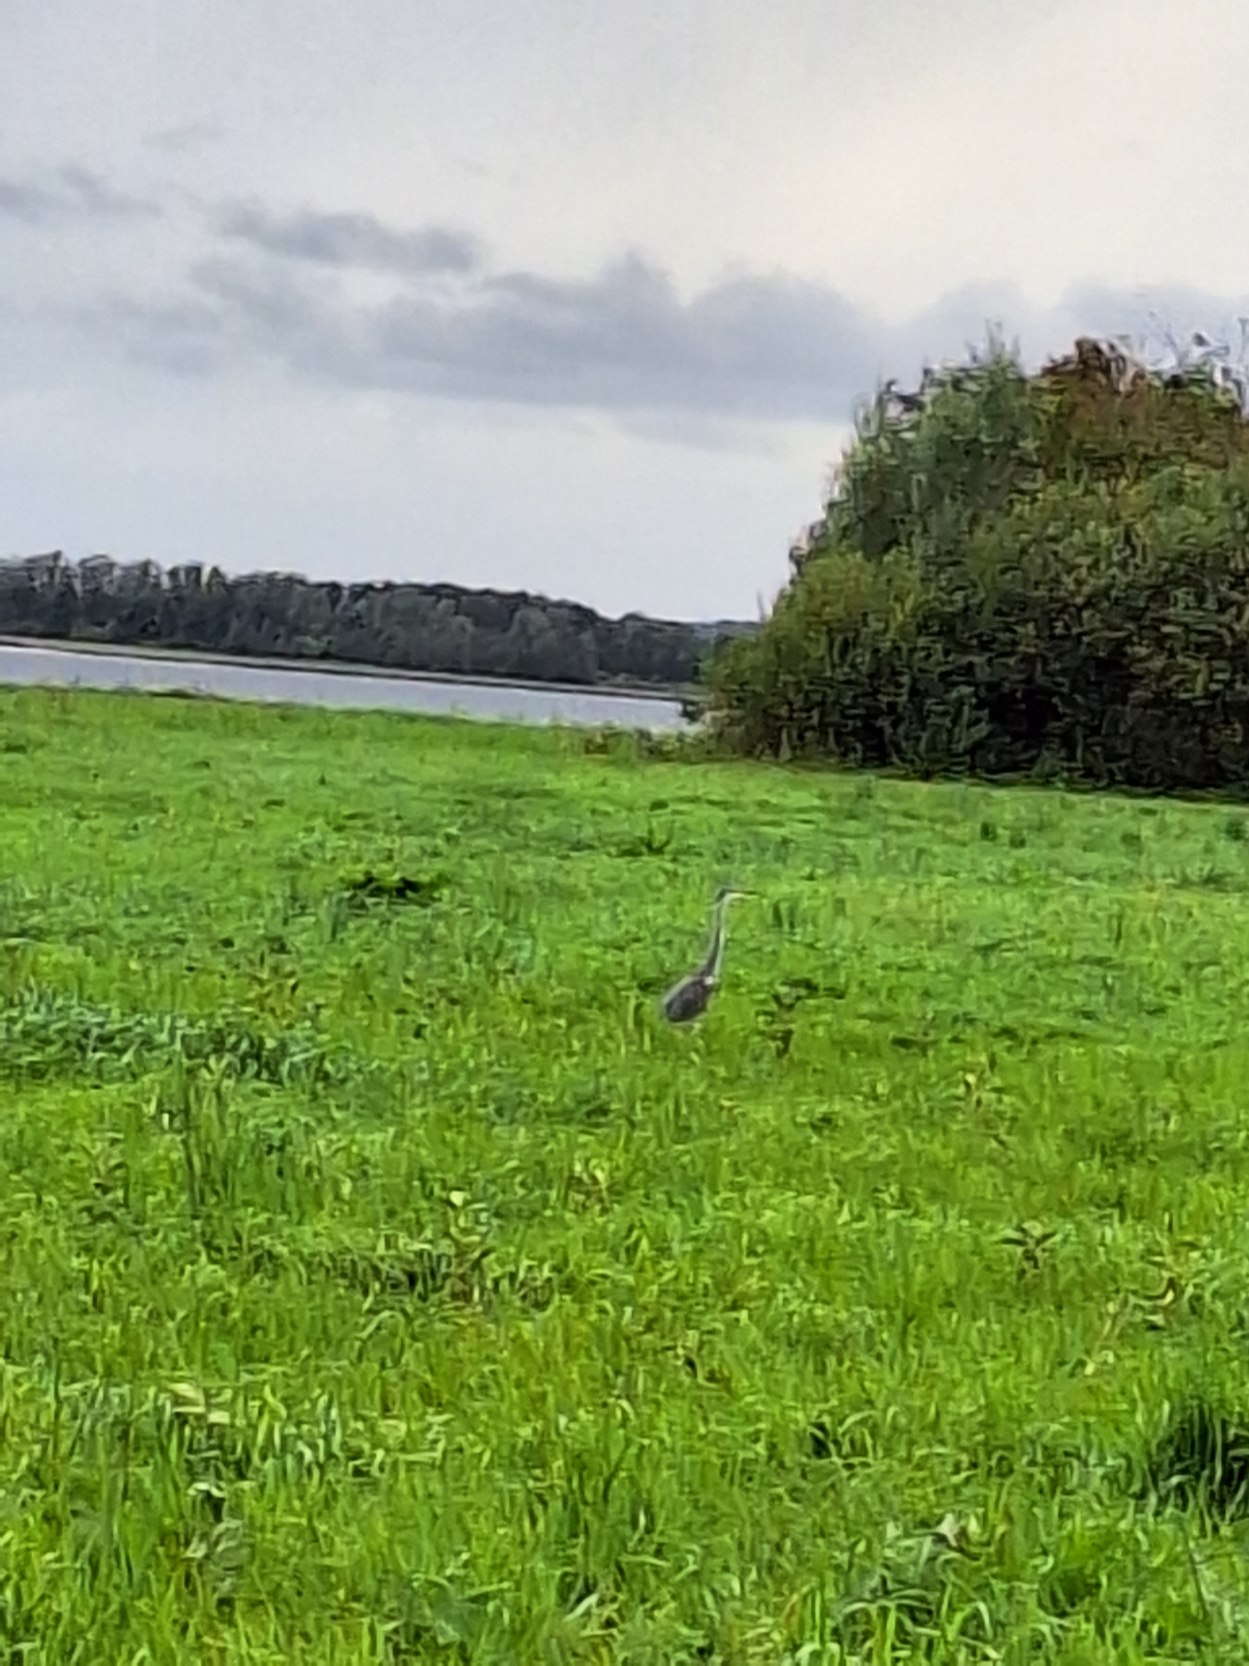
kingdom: Animalia
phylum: Chordata
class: Aves
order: Pelecaniformes
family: Ardeidae
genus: Ardea
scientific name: Ardea cinerea
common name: Fiskehejre
